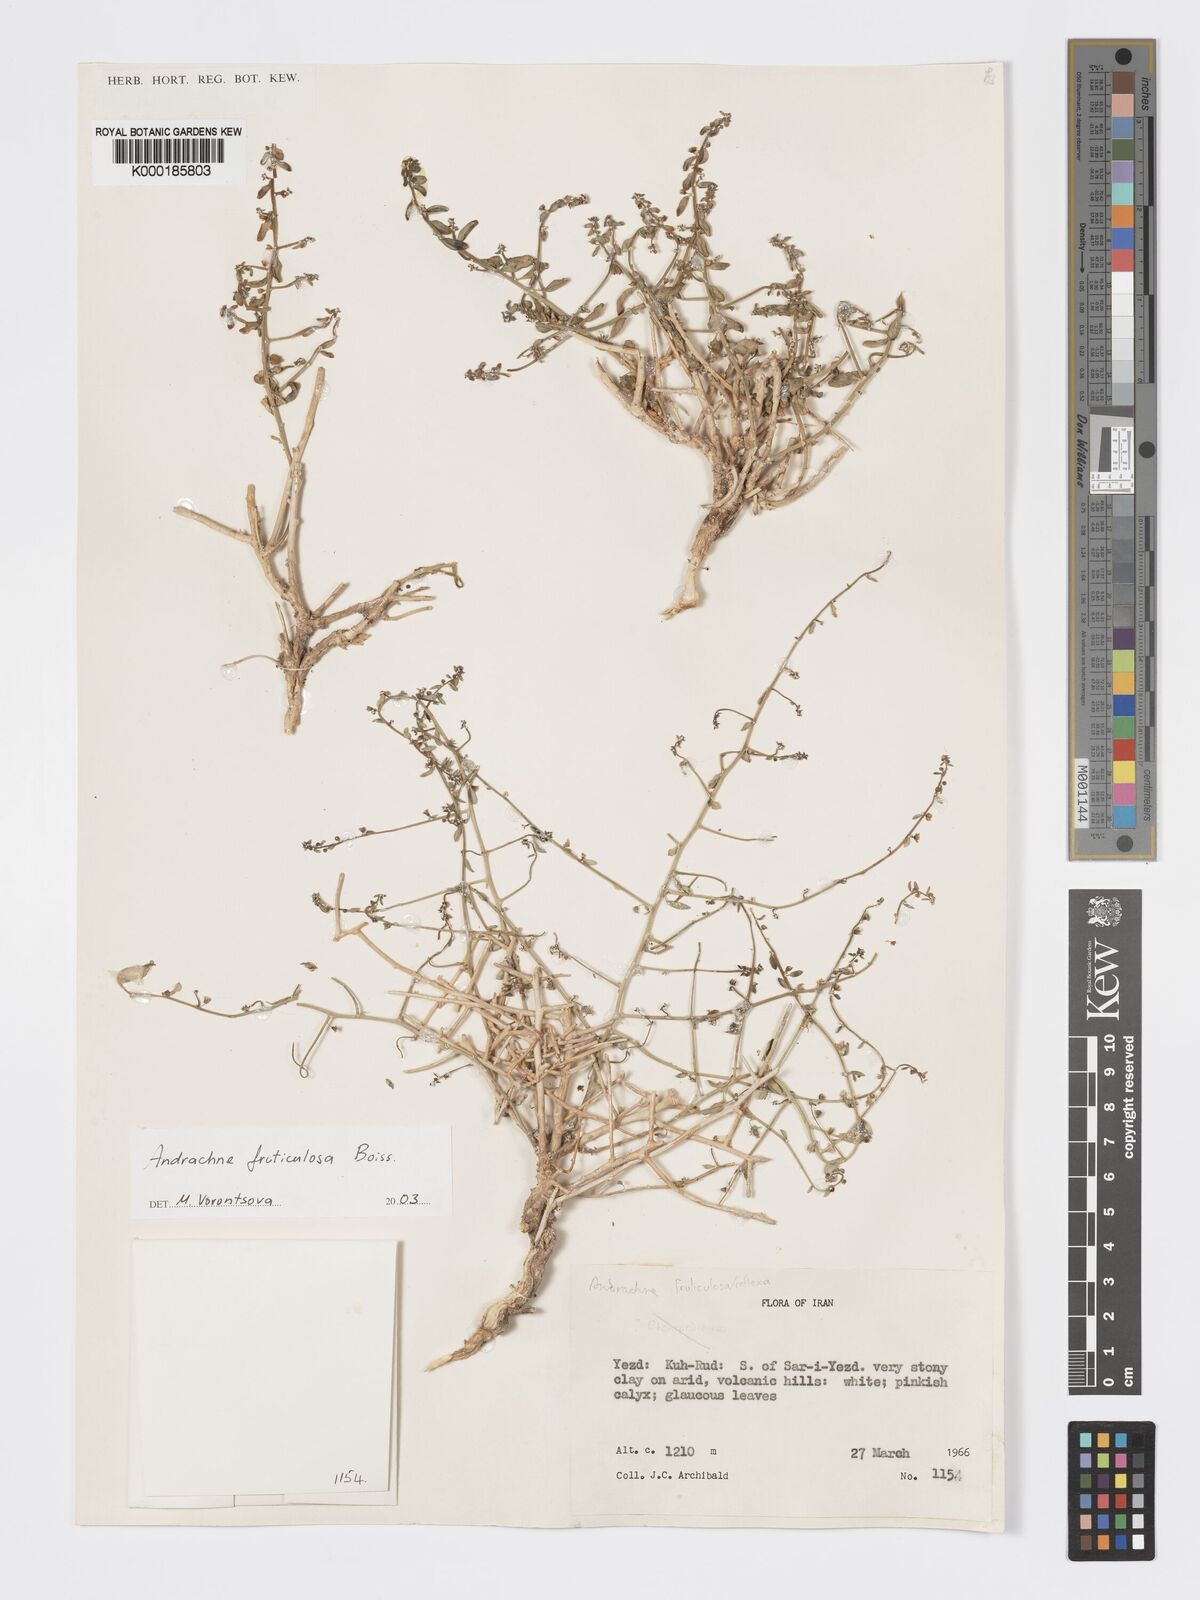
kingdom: Plantae
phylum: Tracheophyta
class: Magnoliopsida
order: Malpighiales
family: Phyllanthaceae
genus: Andrachne
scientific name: Andrachne fruticulosa
